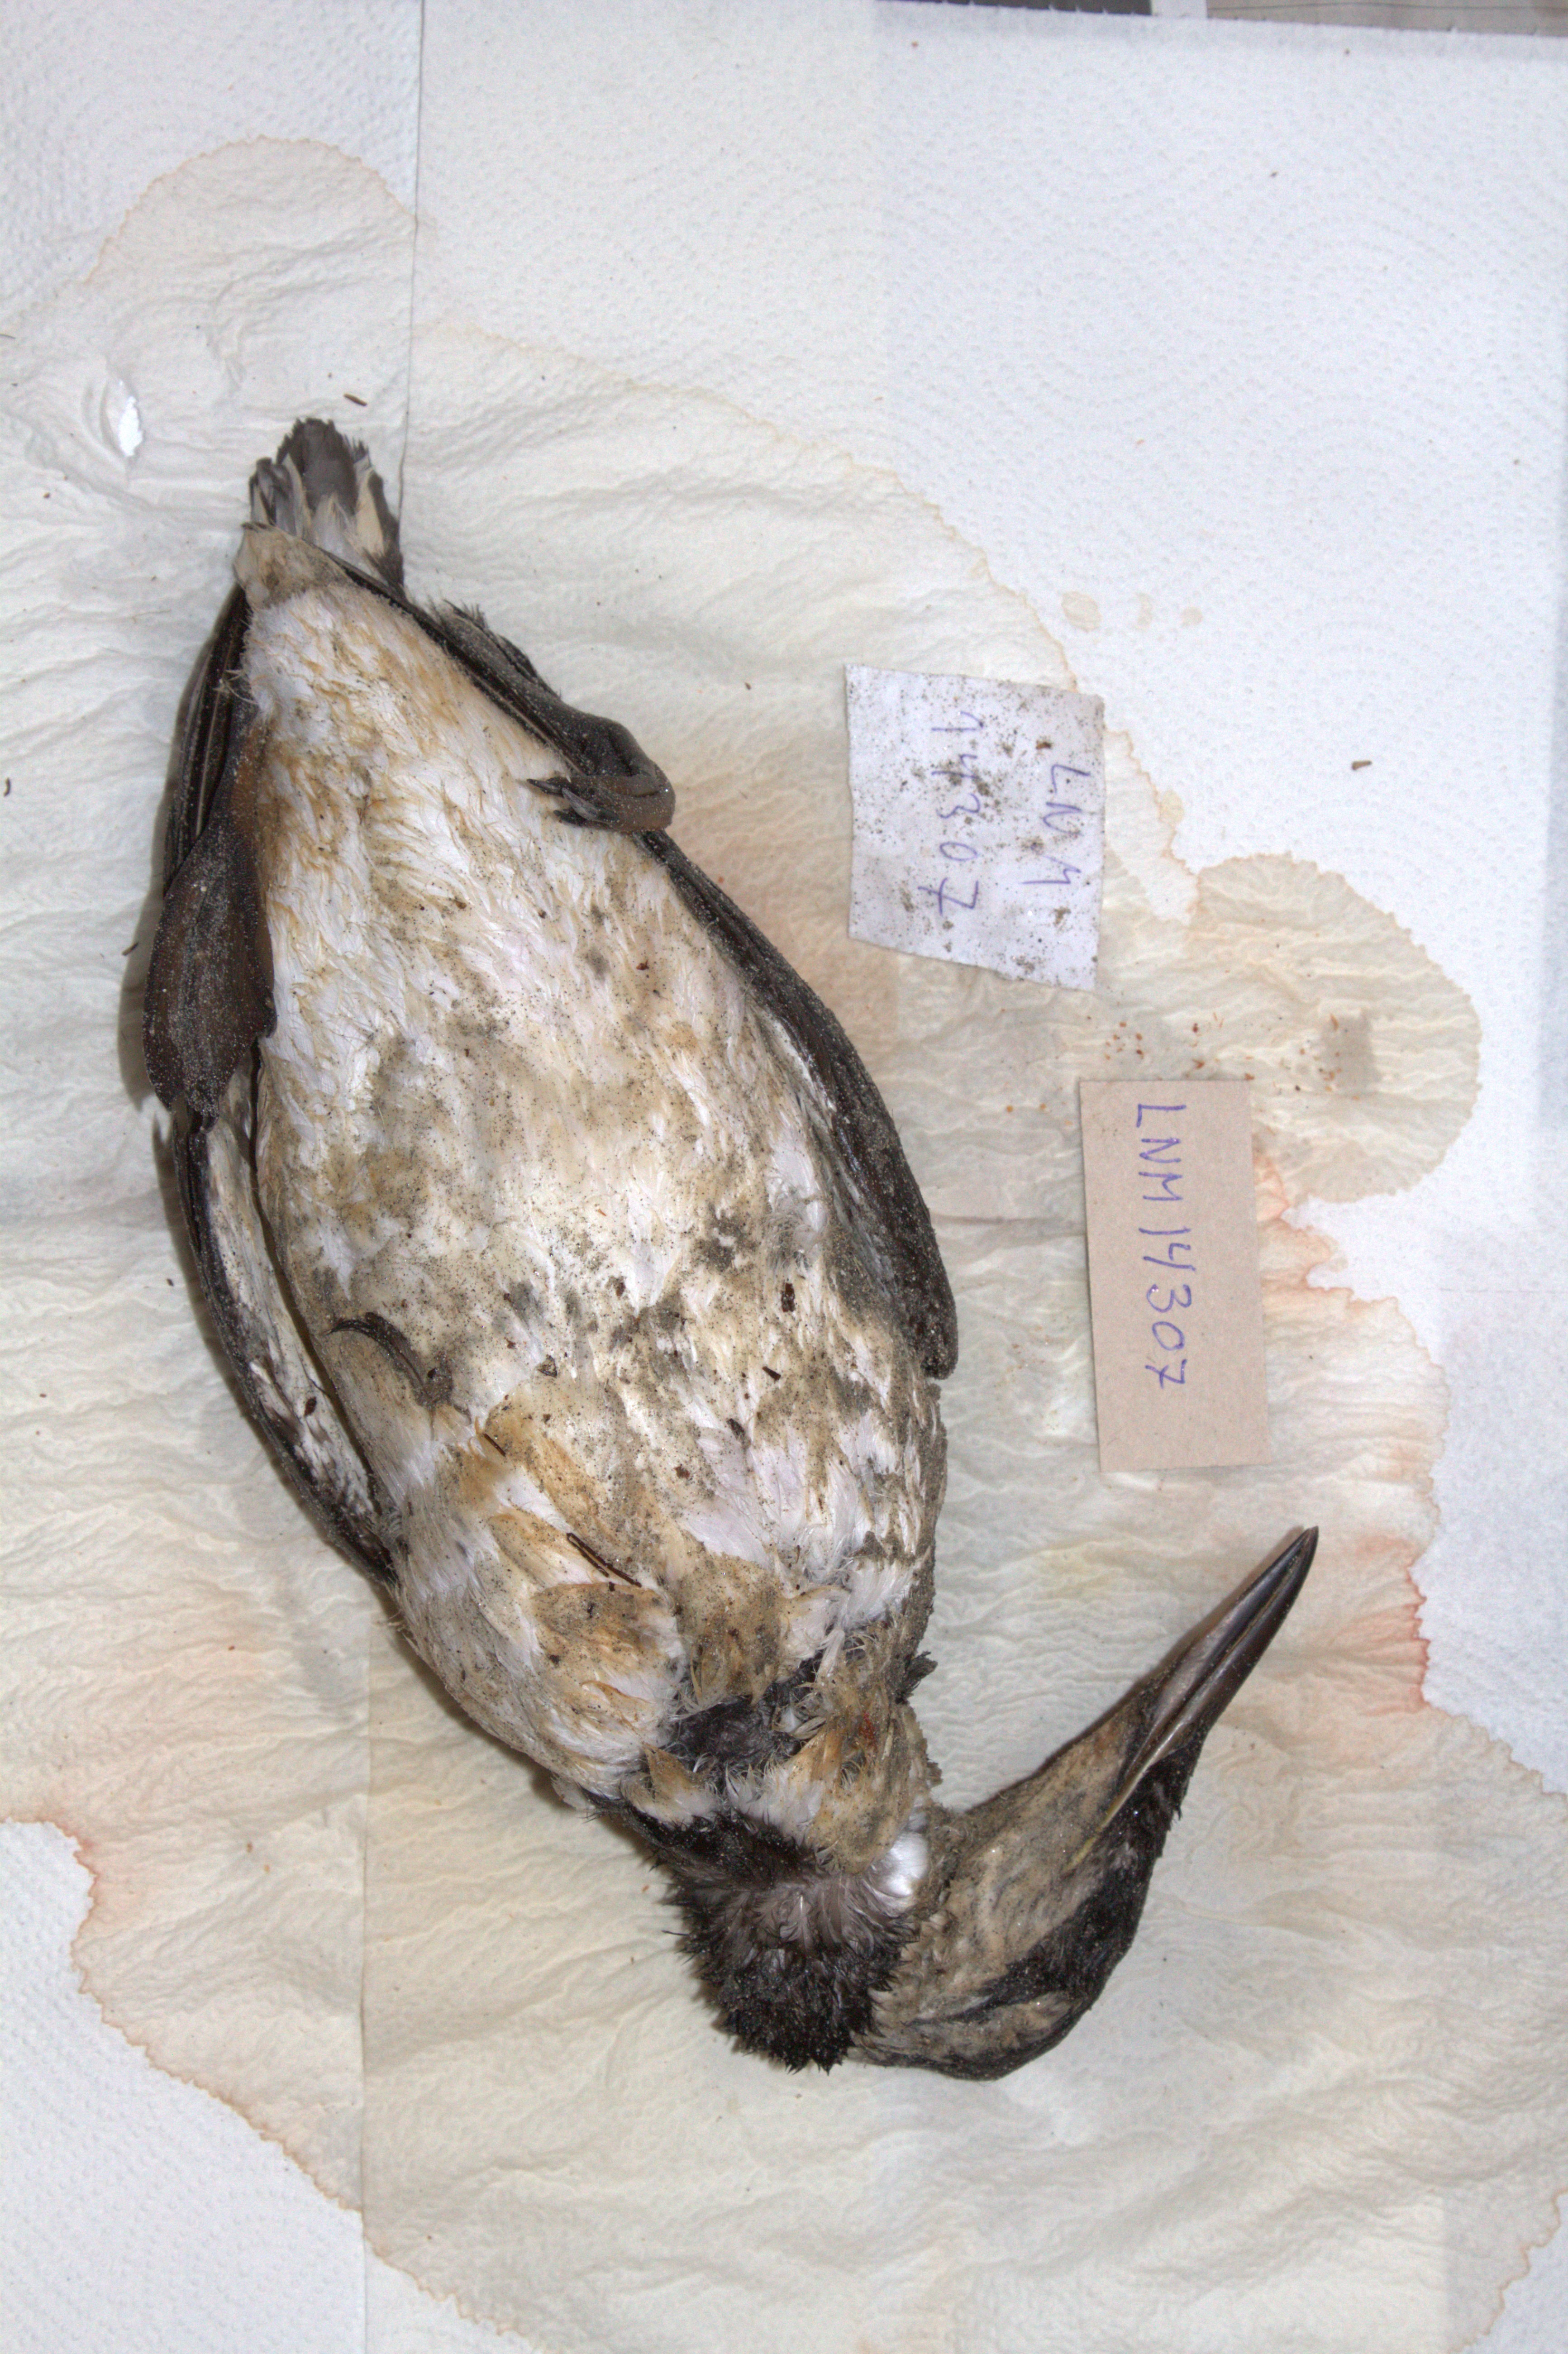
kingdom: Animalia
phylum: Chordata
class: Aves
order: Charadriiformes
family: Alcidae
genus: Uria
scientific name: Uria aalge
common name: Common murre
